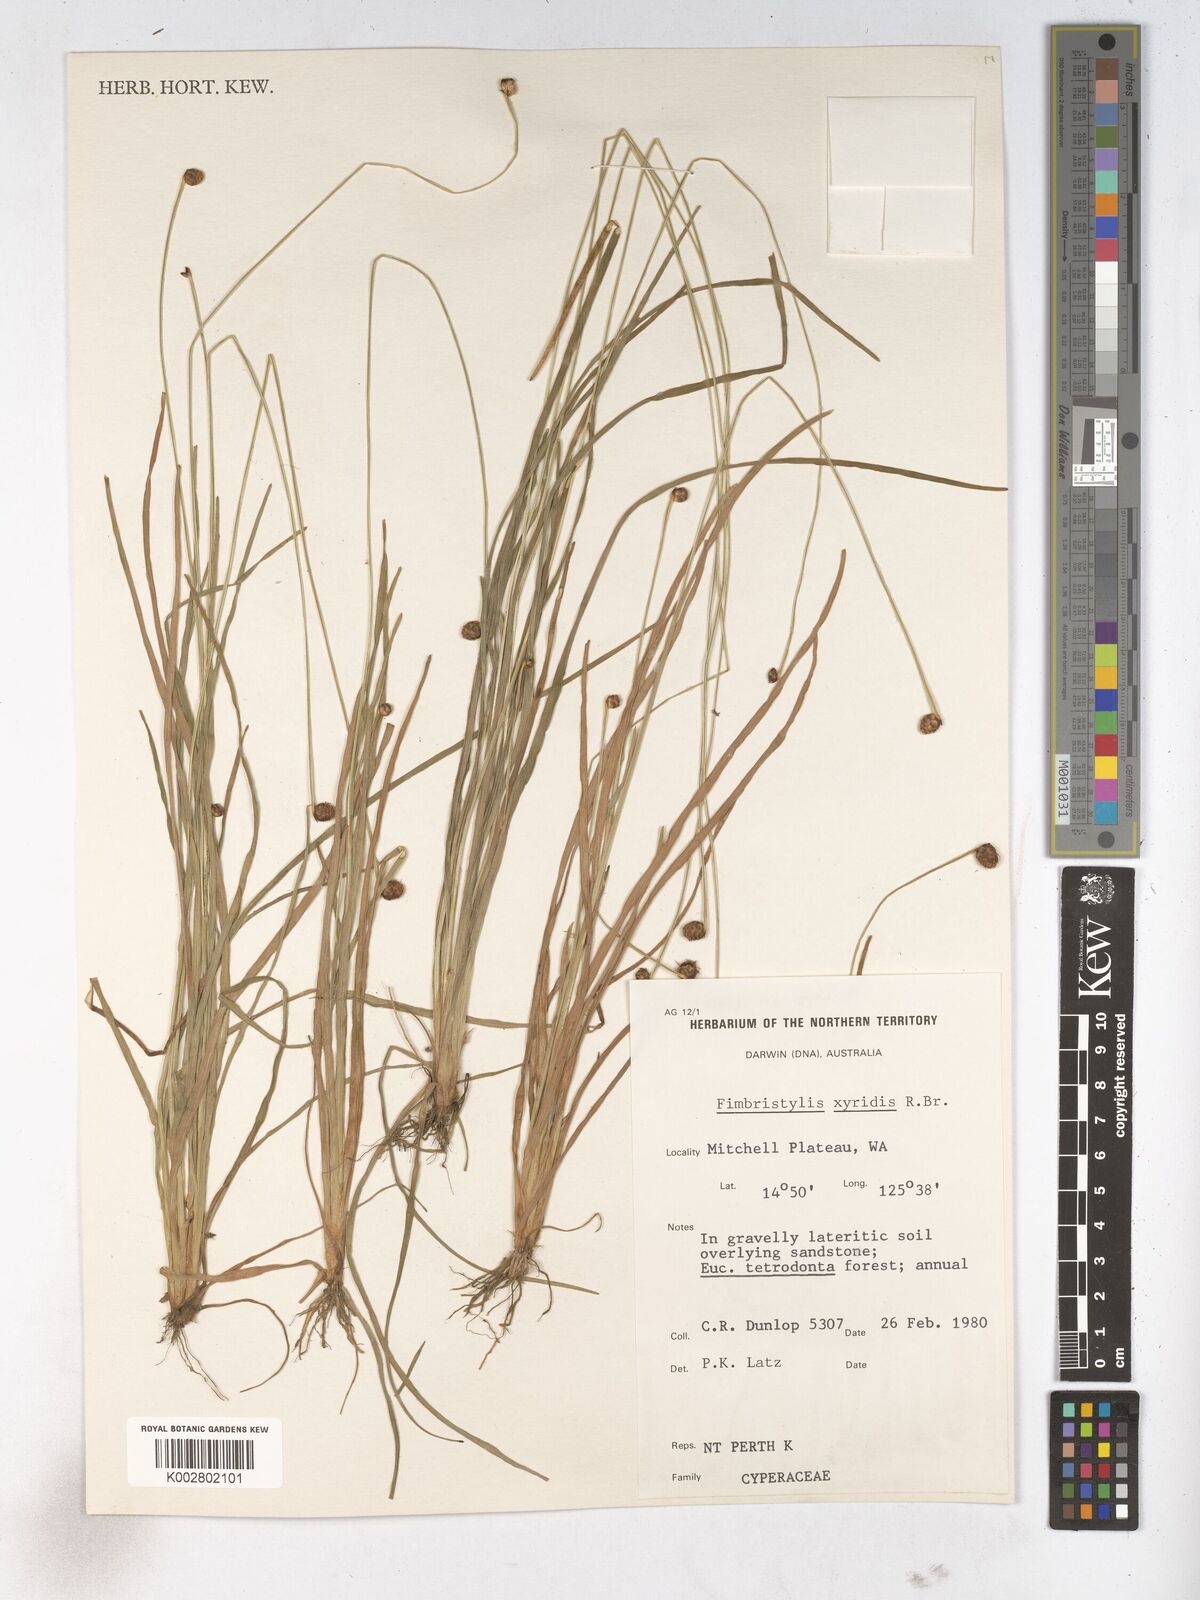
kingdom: Plantae
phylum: Tracheophyta
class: Liliopsida
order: Poales
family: Cyperaceae
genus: Fimbristylis
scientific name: Fimbristylis xyridis
